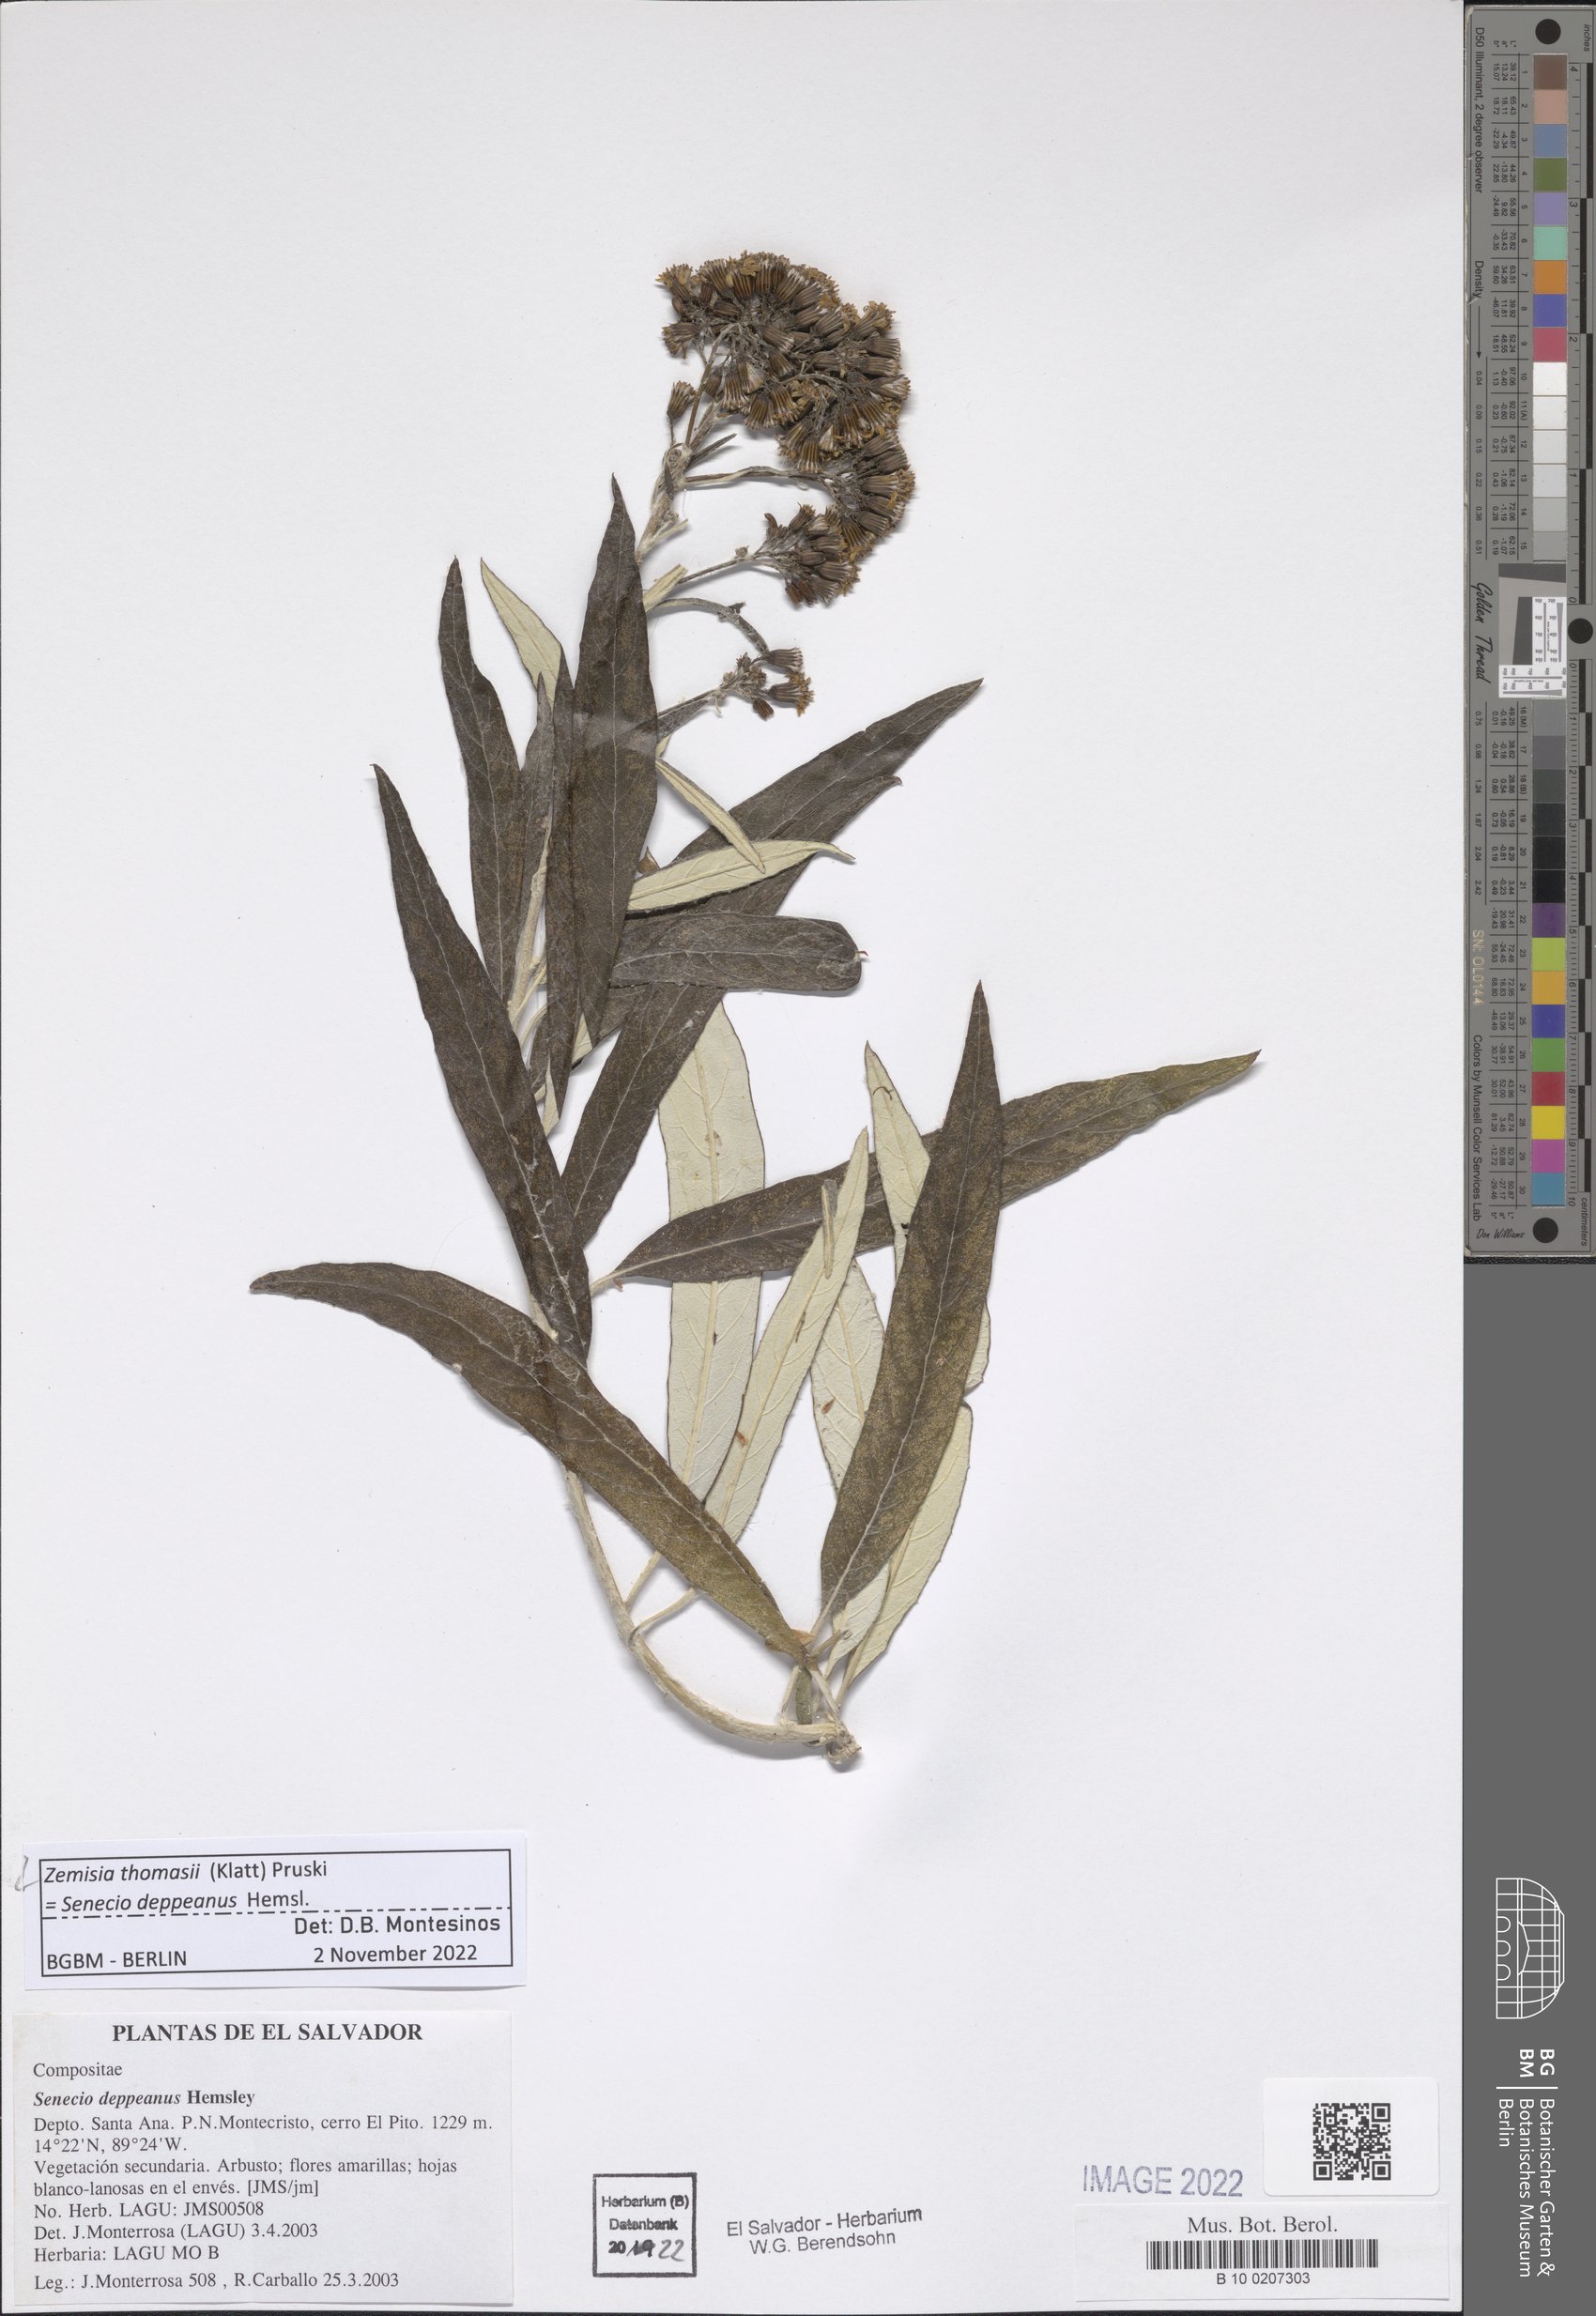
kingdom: Plantae
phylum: Tracheophyta
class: Magnoliopsida
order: Asterales
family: Asteraceae
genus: Zemisia
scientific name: Zemisia thomasii
